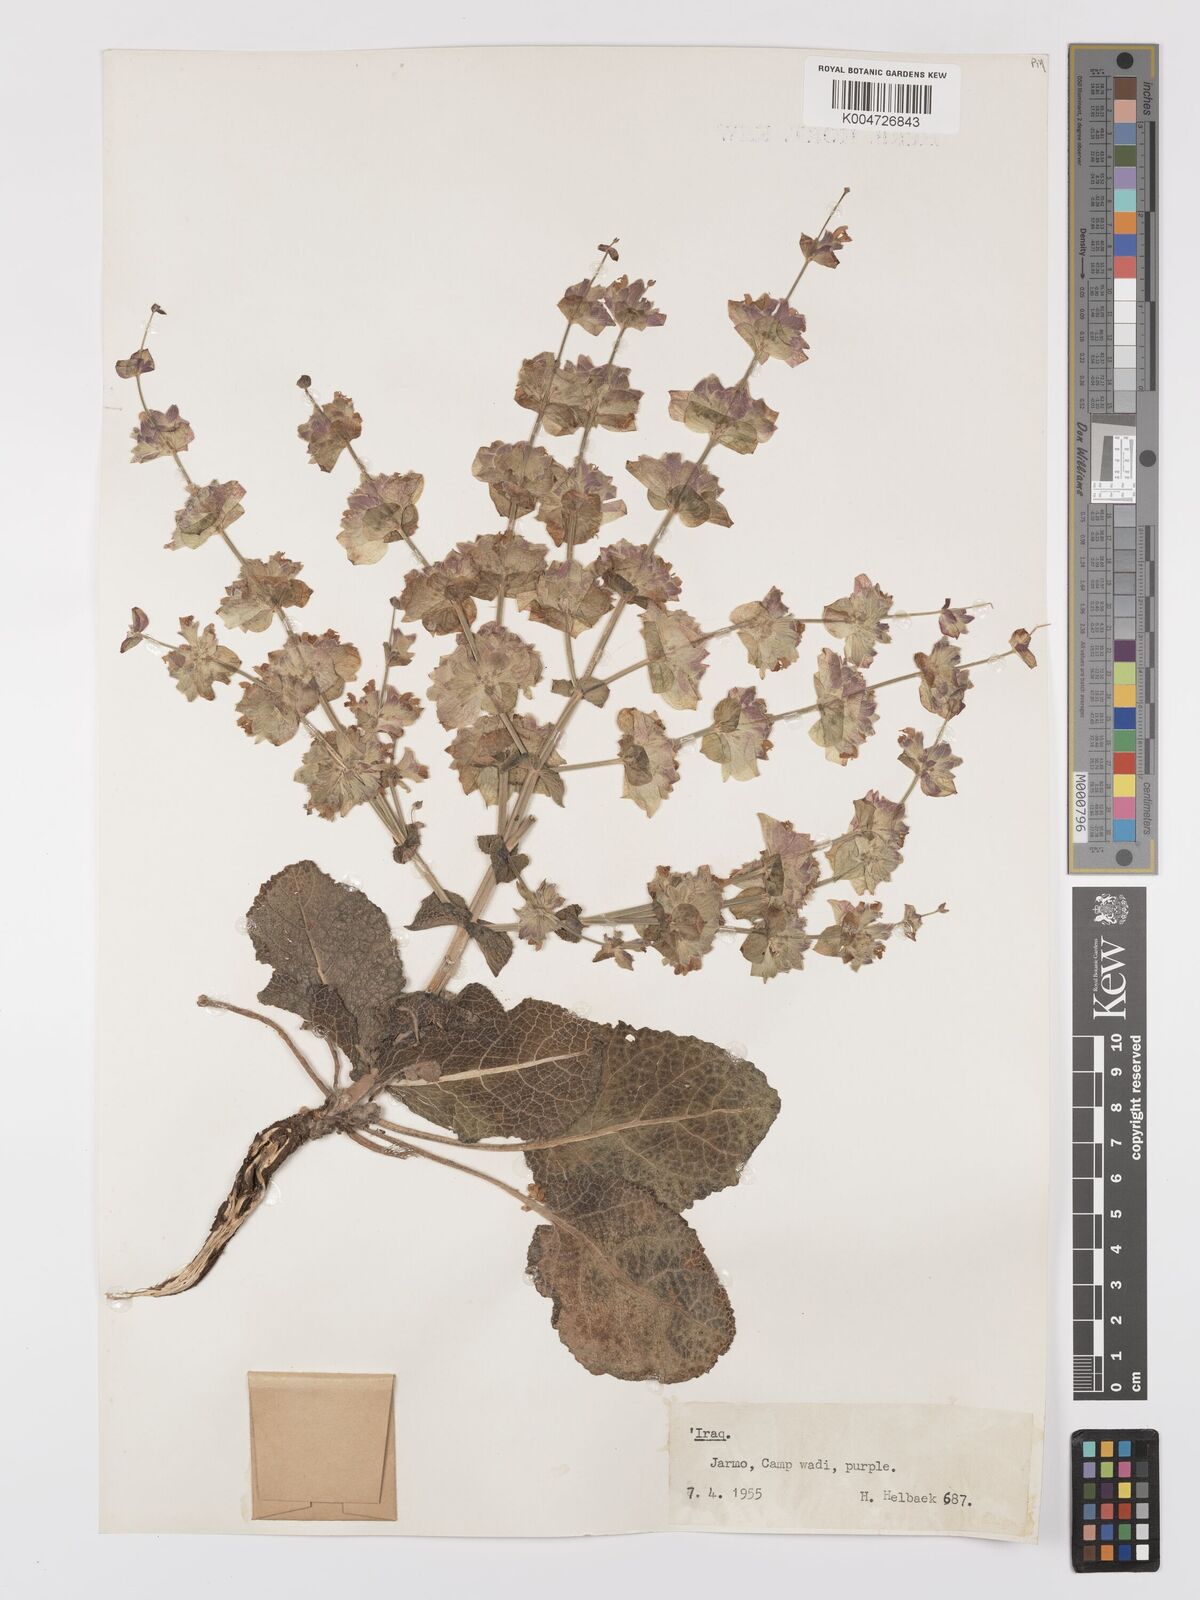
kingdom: Plantae
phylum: Tracheophyta
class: Magnoliopsida
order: Lamiales
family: Lamiaceae
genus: Salvia
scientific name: Salvia
